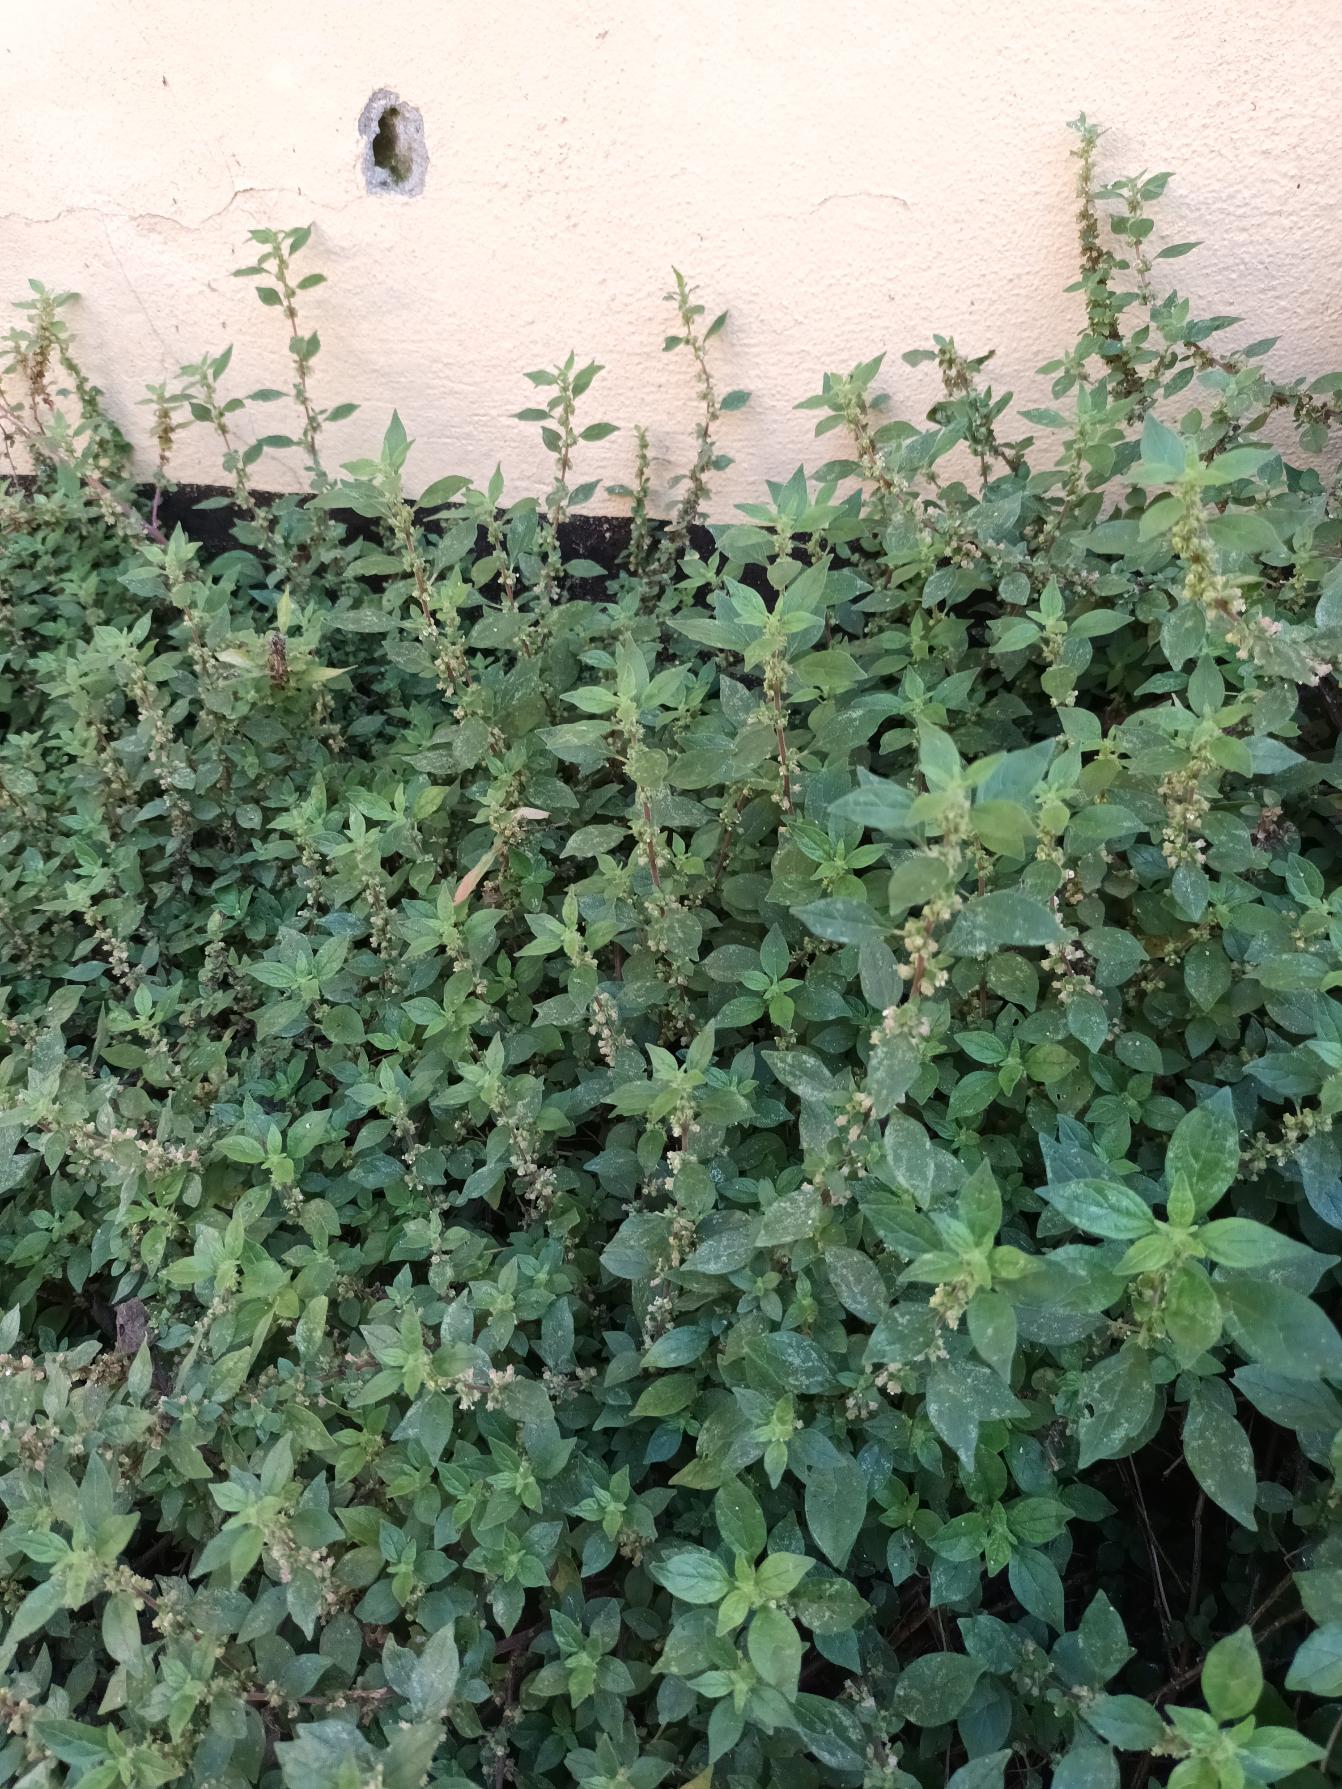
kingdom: Plantae
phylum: Tracheophyta
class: Magnoliopsida
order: Rosales
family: Urticaceae
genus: Parietaria
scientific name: Parietaria judaica
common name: Nedliggende springknap
